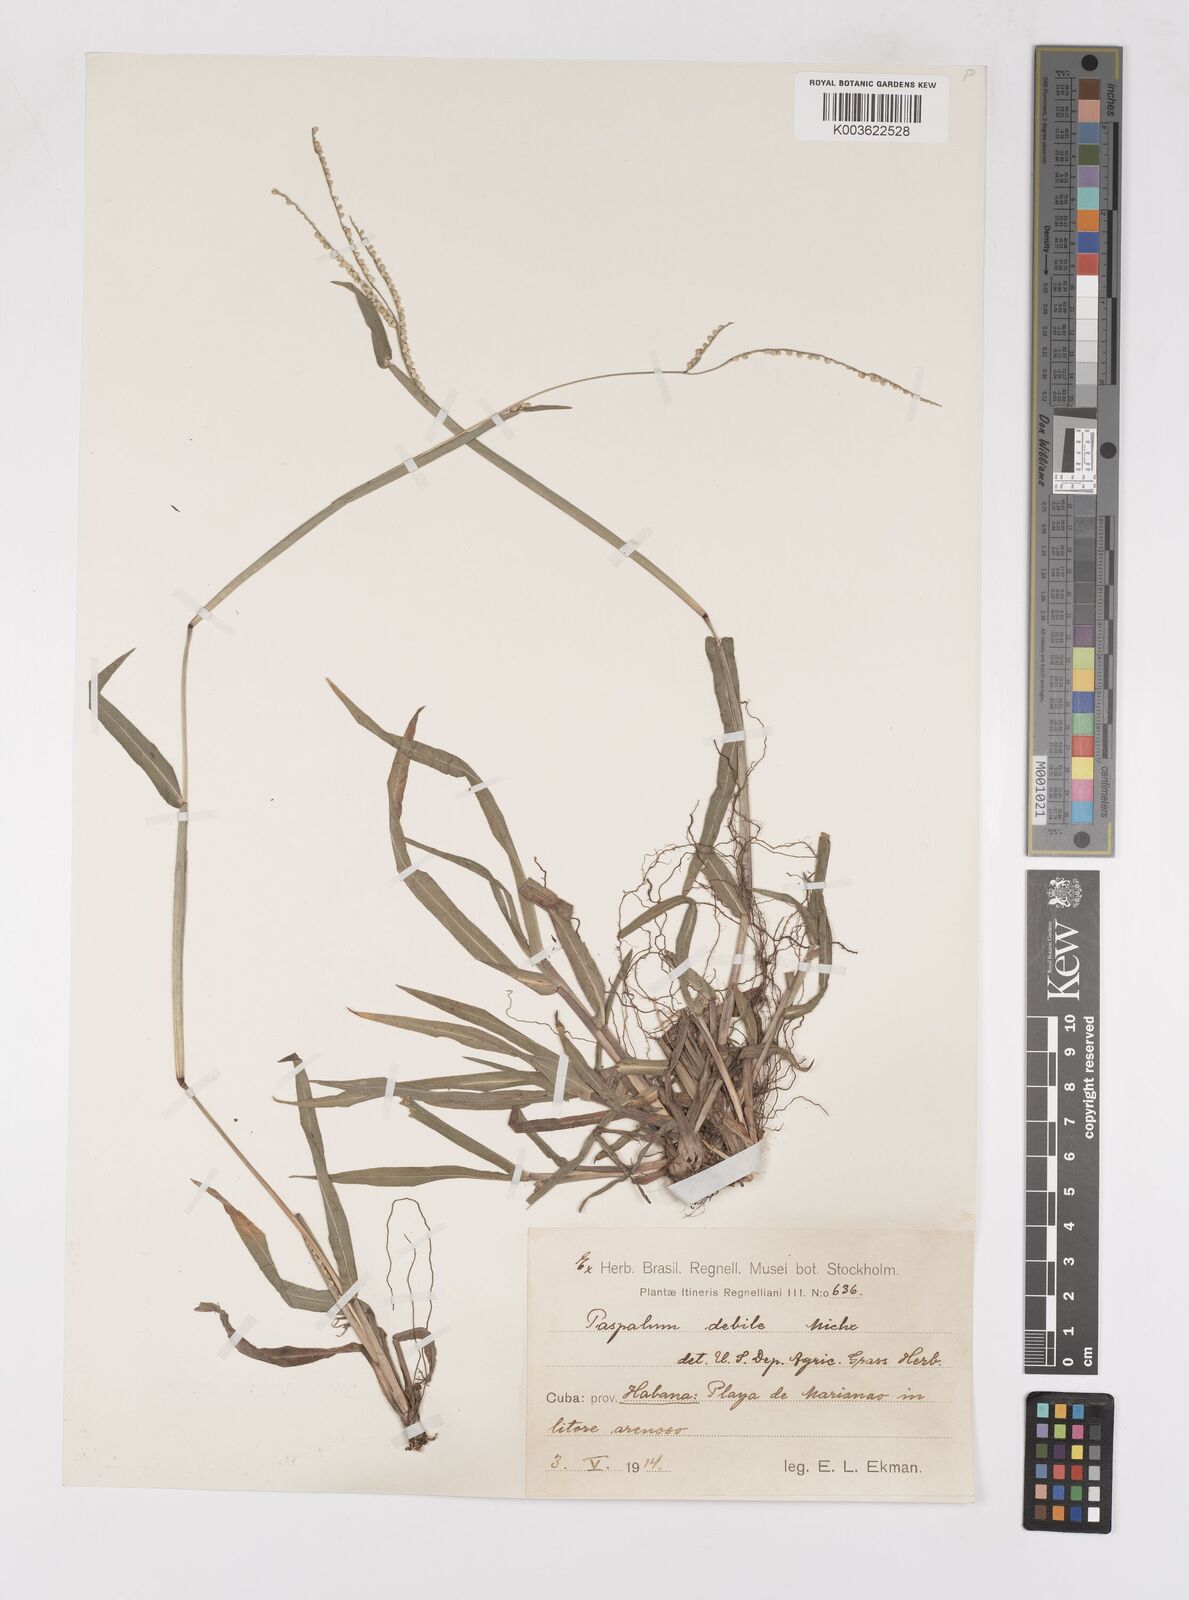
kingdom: Plantae
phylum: Tracheophyta
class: Liliopsida
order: Poales
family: Poaceae
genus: Paspalum
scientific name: Paspalum
